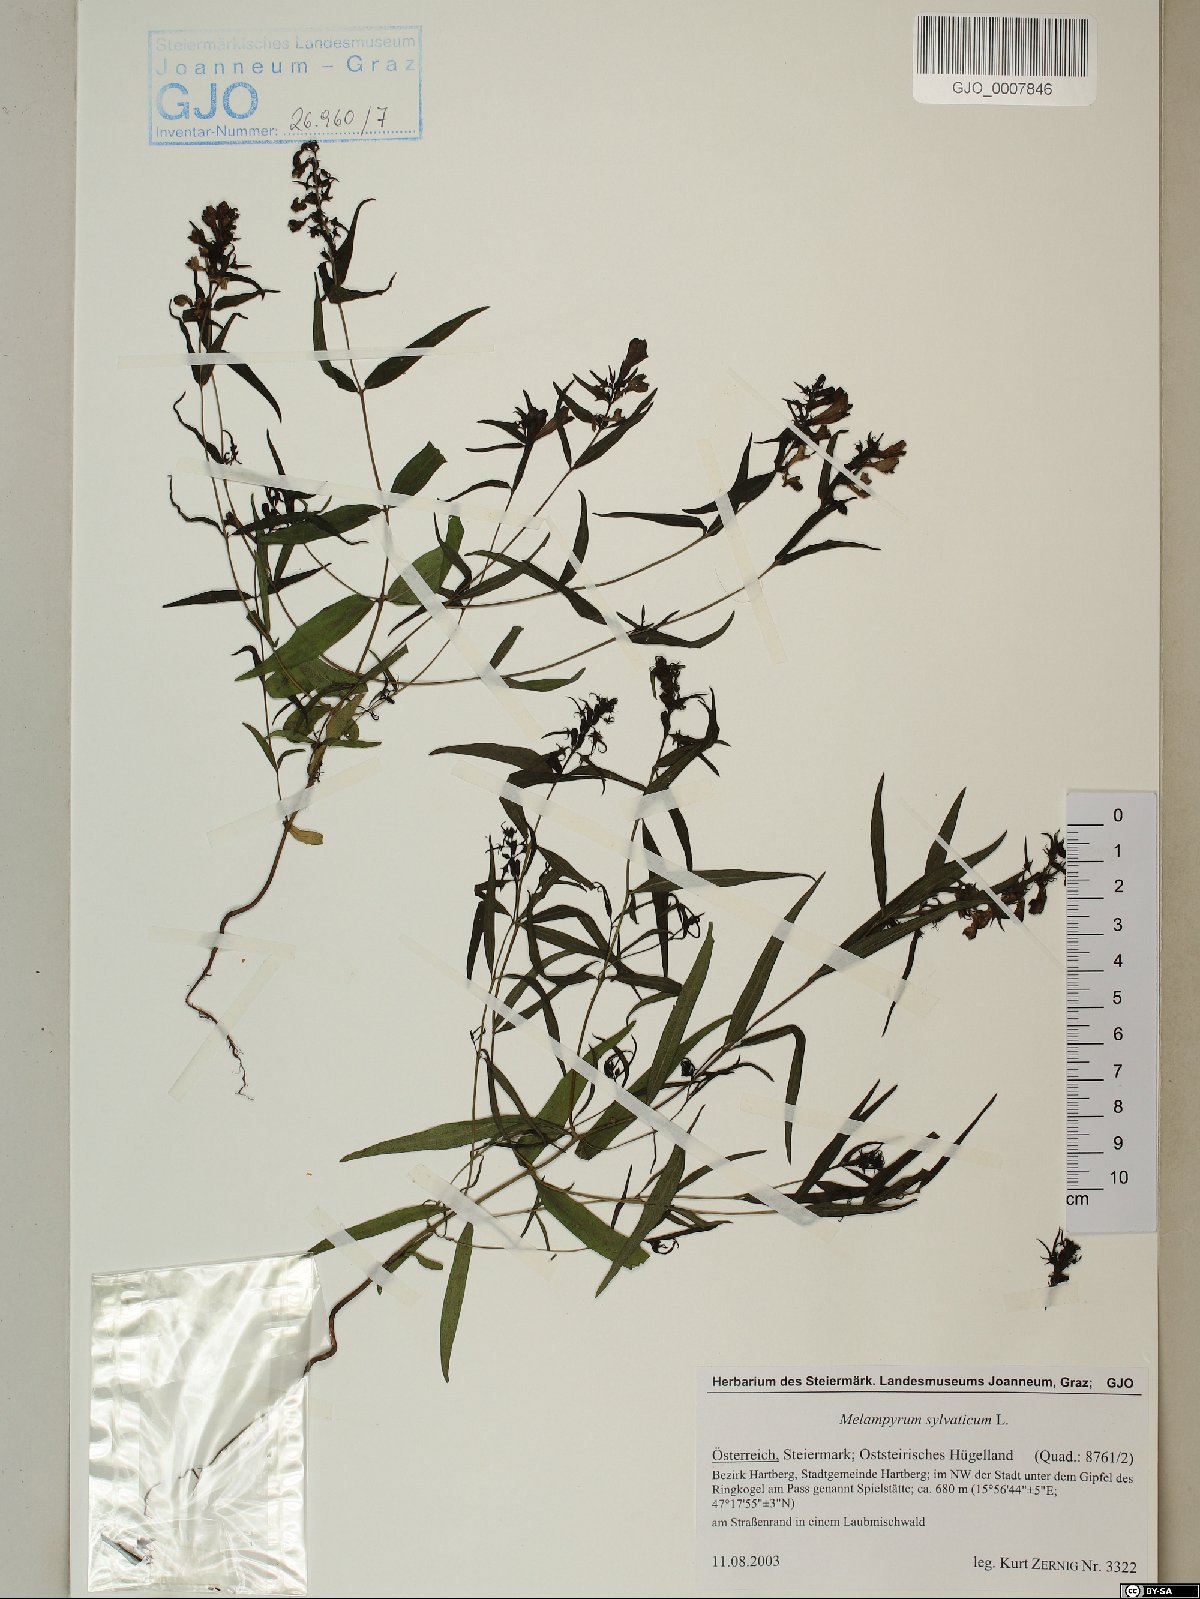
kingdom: Plantae
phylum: Tracheophyta
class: Magnoliopsida
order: Lamiales
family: Orobanchaceae
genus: Melampyrum
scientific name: Melampyrum sylvaticum
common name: Small cow-wheat
